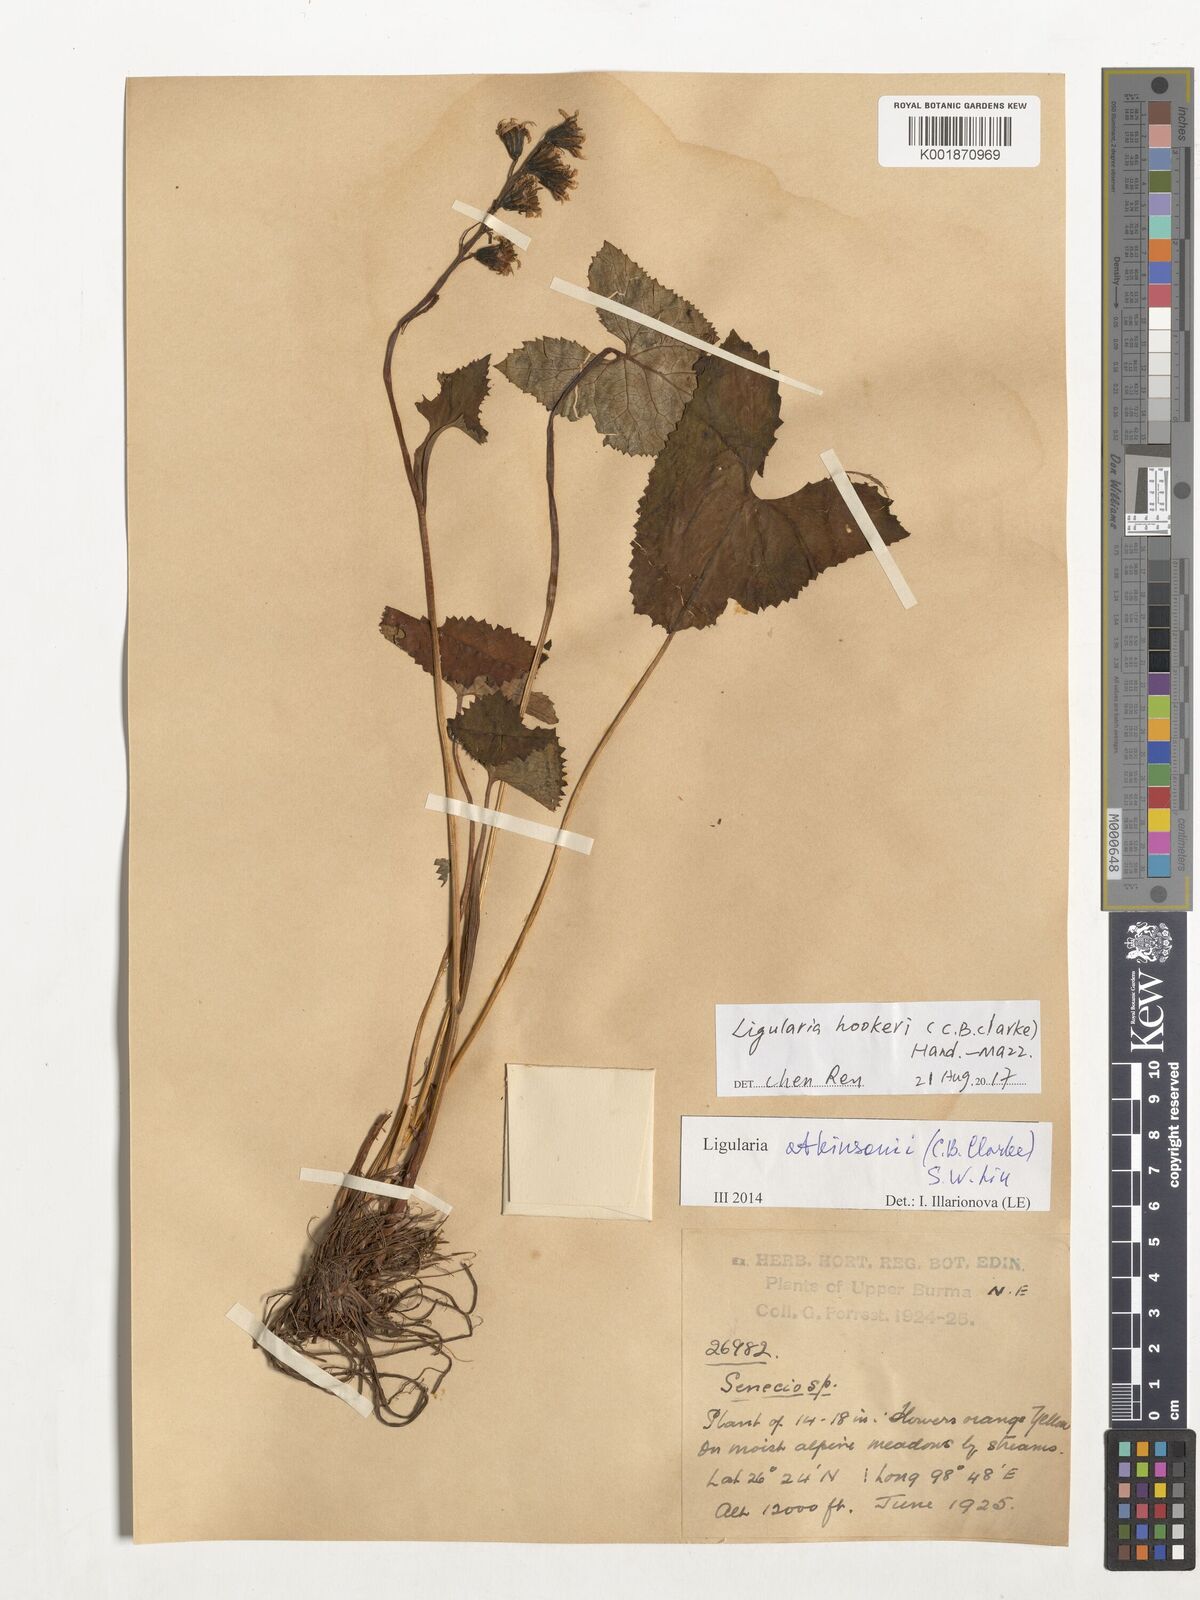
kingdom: Plantae
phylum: Tracheophyta
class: Magnoliopsida
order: Asterales
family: Asteraceae
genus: Ligularia
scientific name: Ligularia hookeri
